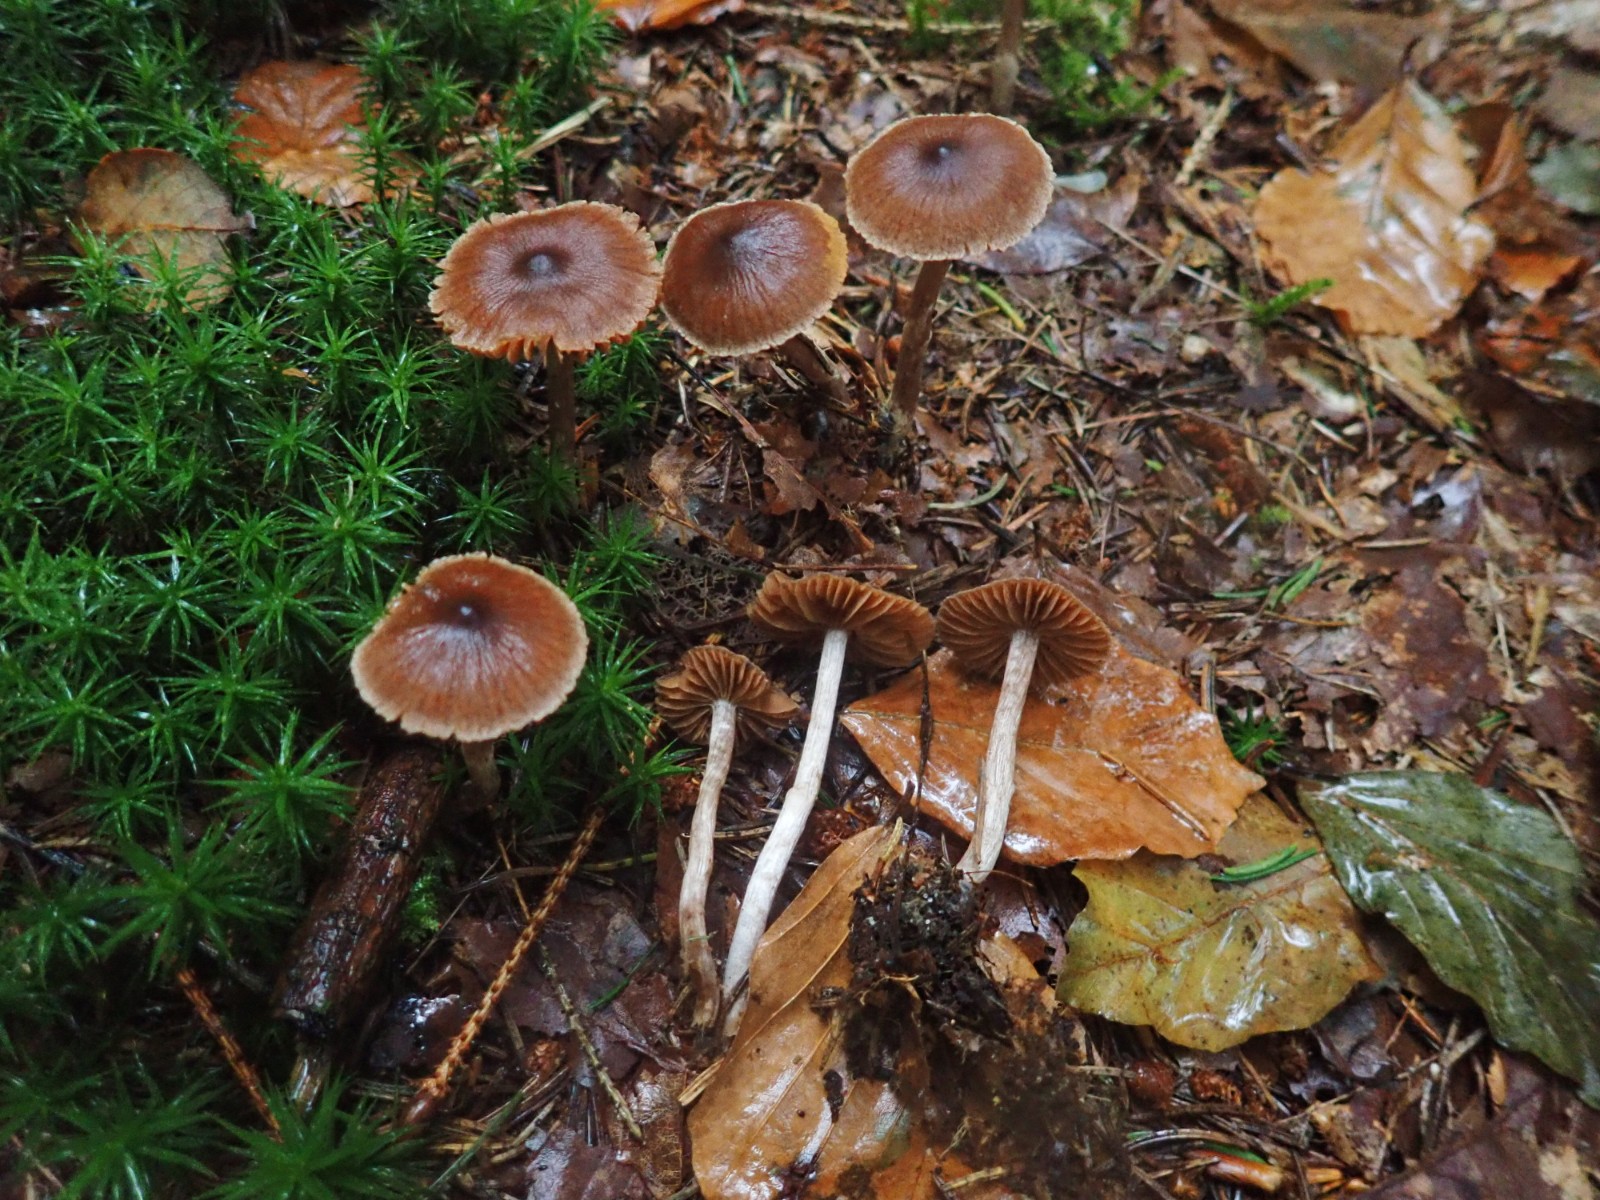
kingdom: Fungi
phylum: Basidiomycota
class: Agaricomycetes
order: Agaricales
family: Cortinariaceae
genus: Cortinarius
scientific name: Cortinarius
